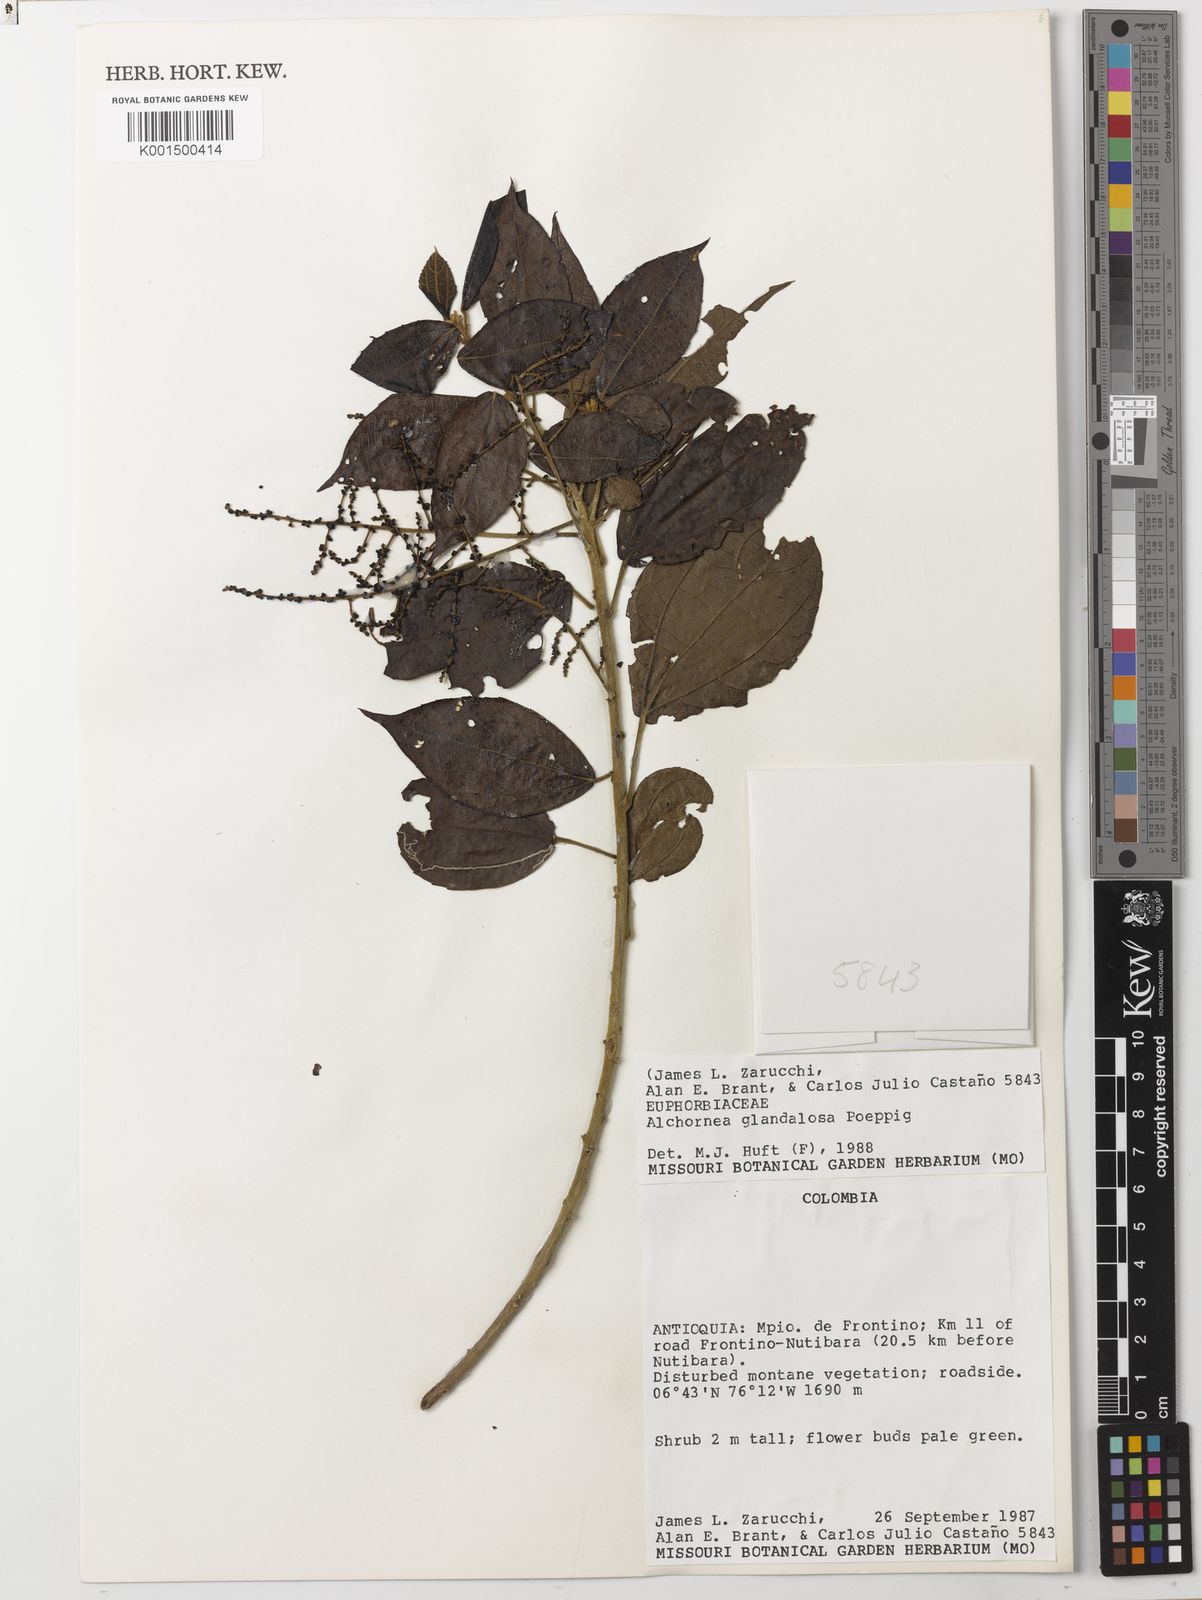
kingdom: Plantae
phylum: Tracheophyta
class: Magnoliopsida
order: Malpighiales
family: Euphorbiaceae
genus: Alchornea
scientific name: Alchornea glandulosa
